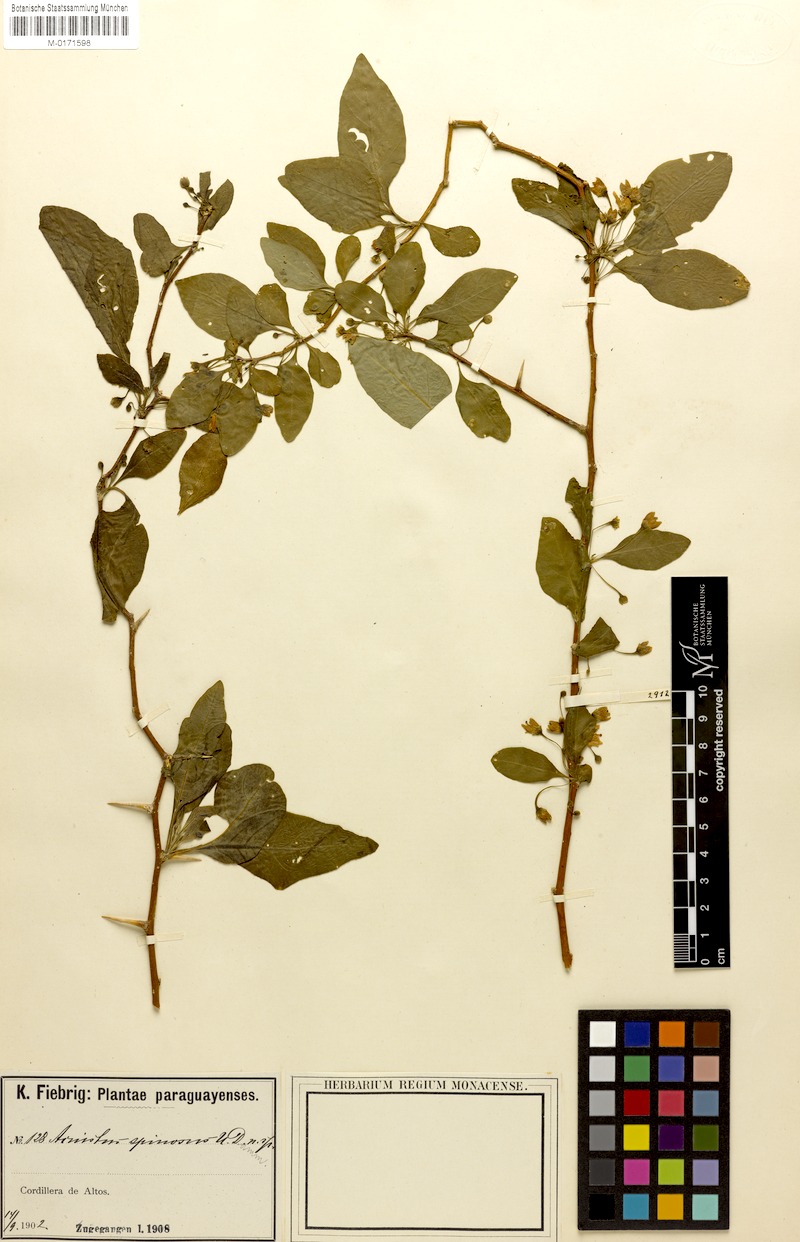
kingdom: Plantae
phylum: Tracheophyta
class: Magnoliopsida
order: Solanales
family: Solanaceae
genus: Vassobia
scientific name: Vassobia breviflora
